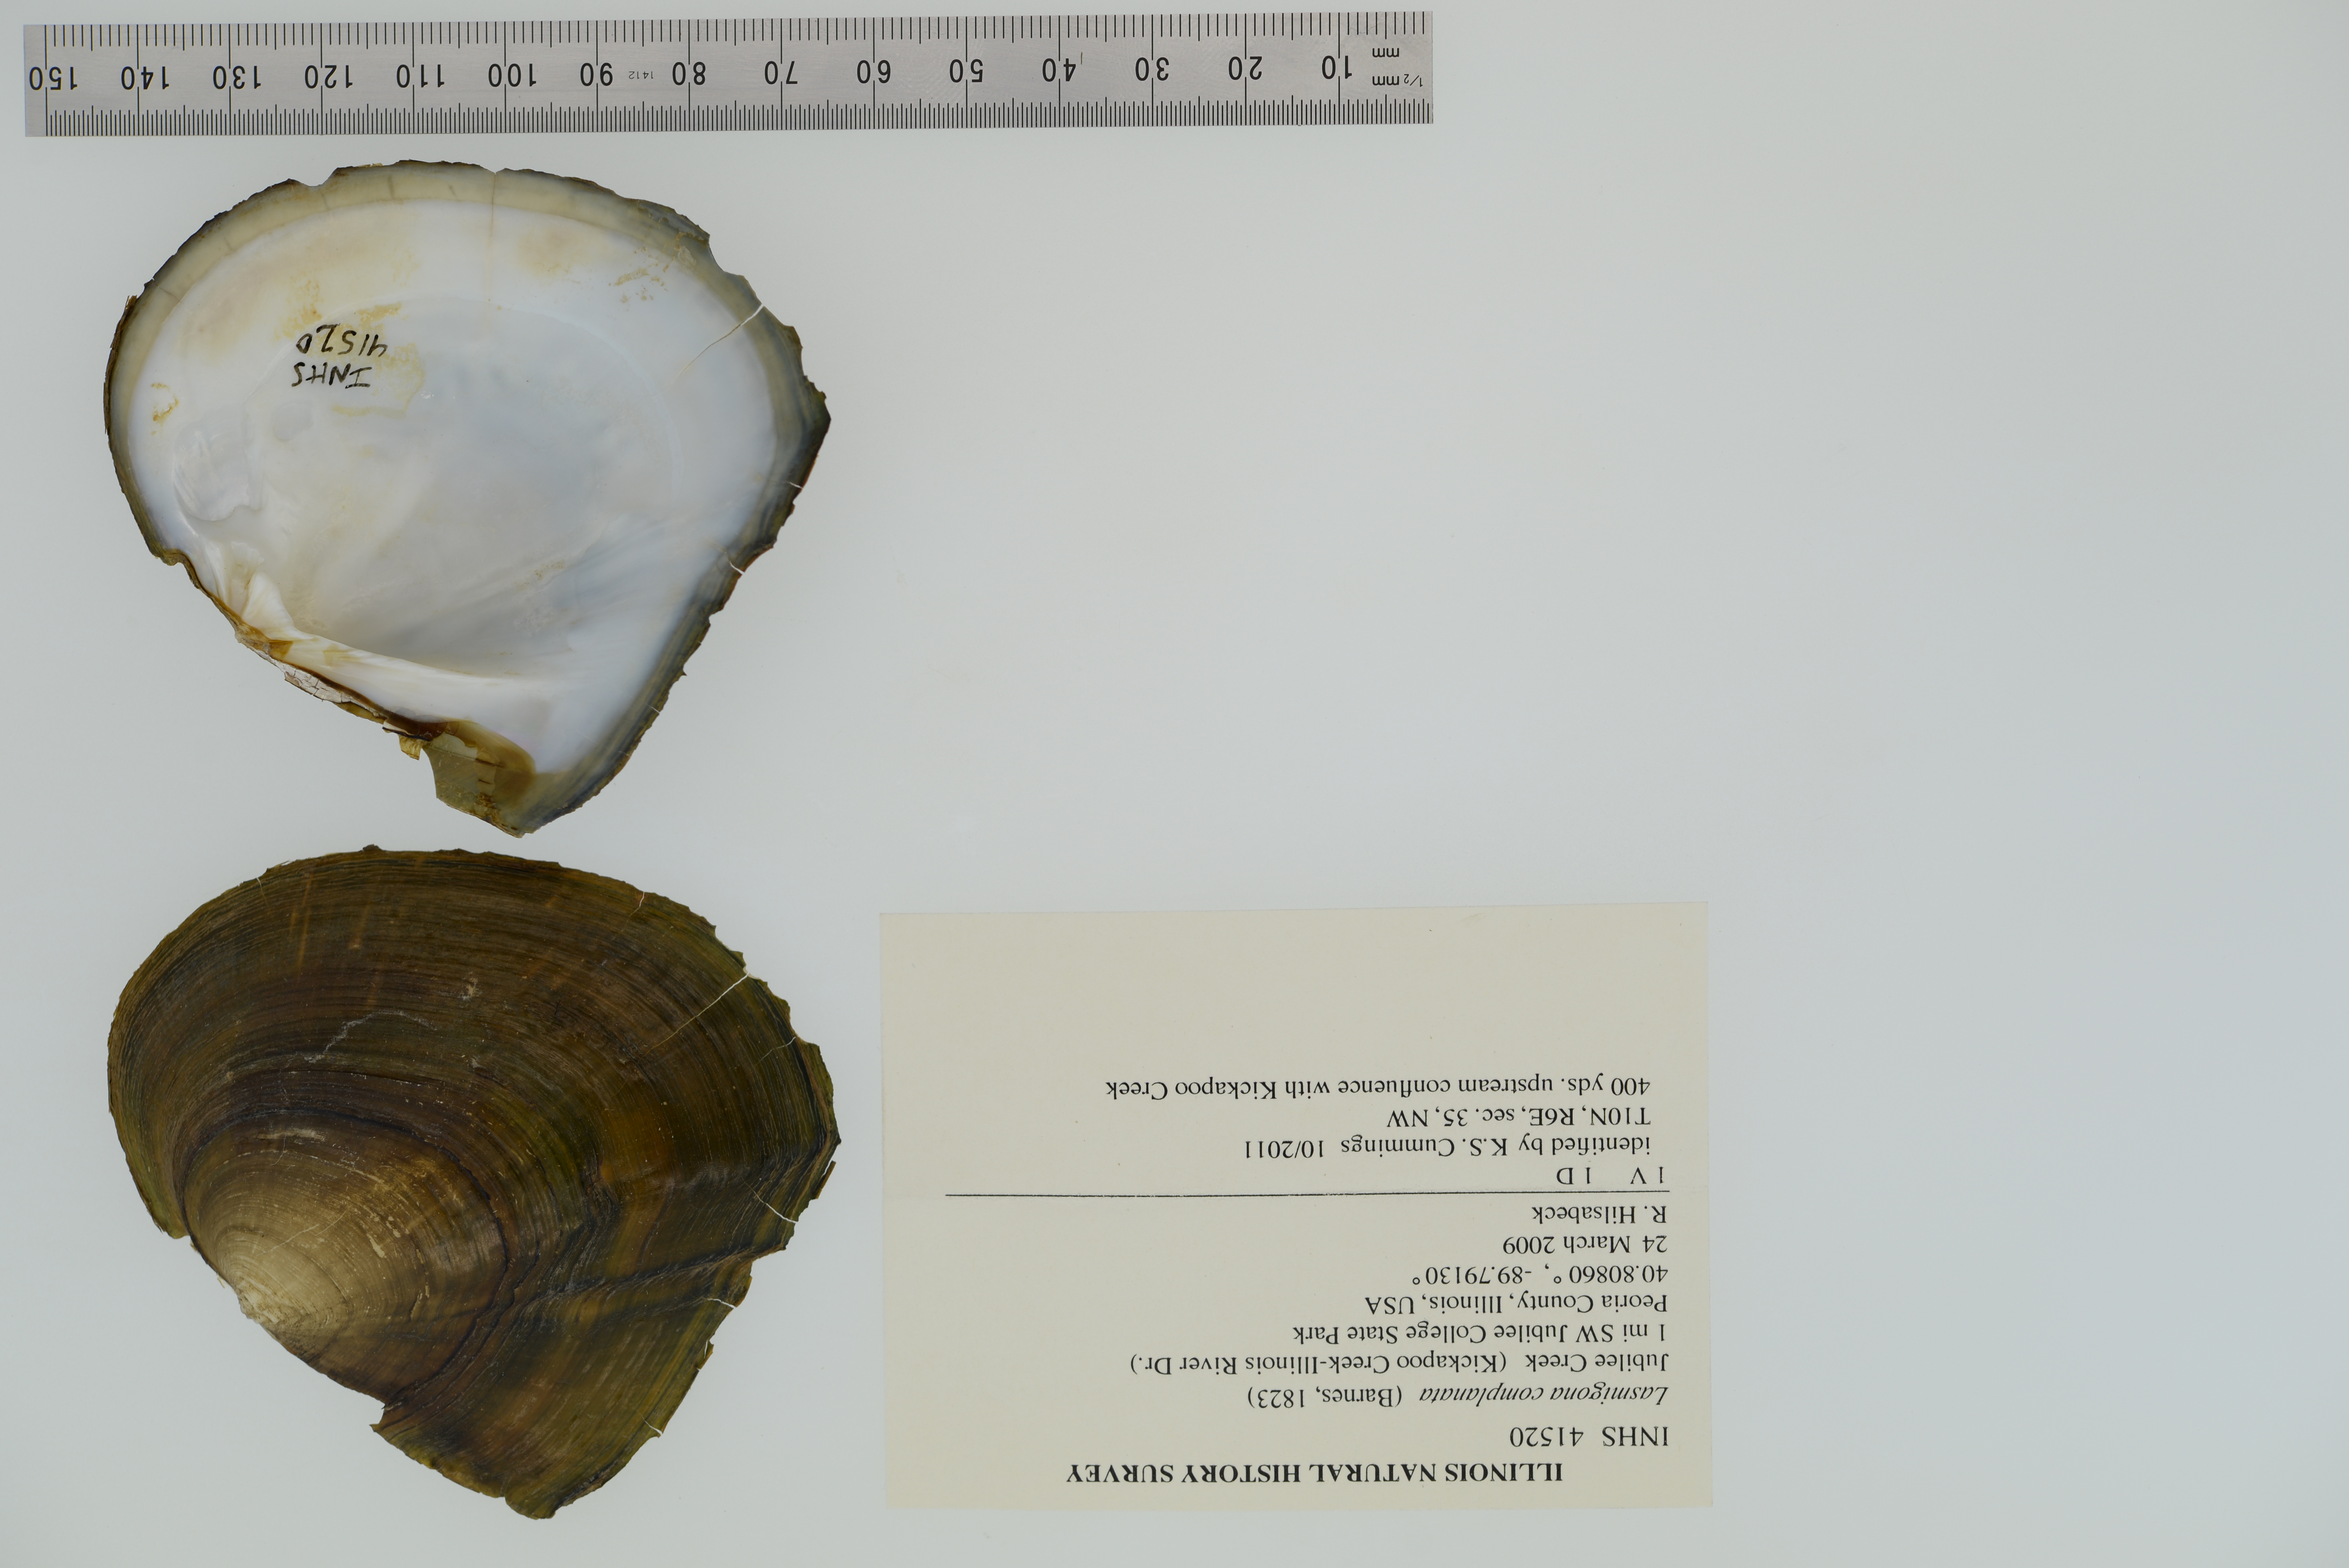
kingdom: Animalia
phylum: Mollusca
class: Bivalvia
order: Unionida
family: Unionidae
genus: Lasmigona
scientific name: Lasmigona complanata
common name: White heelsplitter
